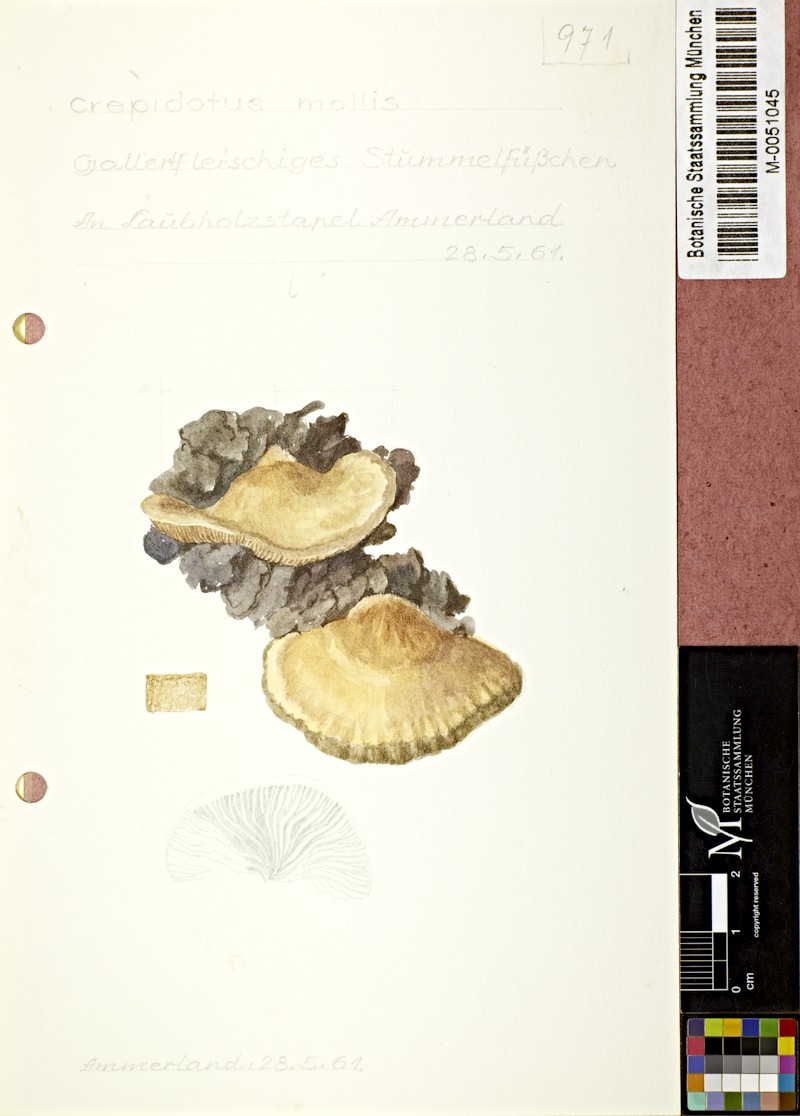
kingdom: Fungi
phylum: Basidiomycota
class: Agaricomycetes
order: Agaricales
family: Crepidotaceae
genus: Crepidotus
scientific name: Crepidotus mollis
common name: Peeling oysterling
